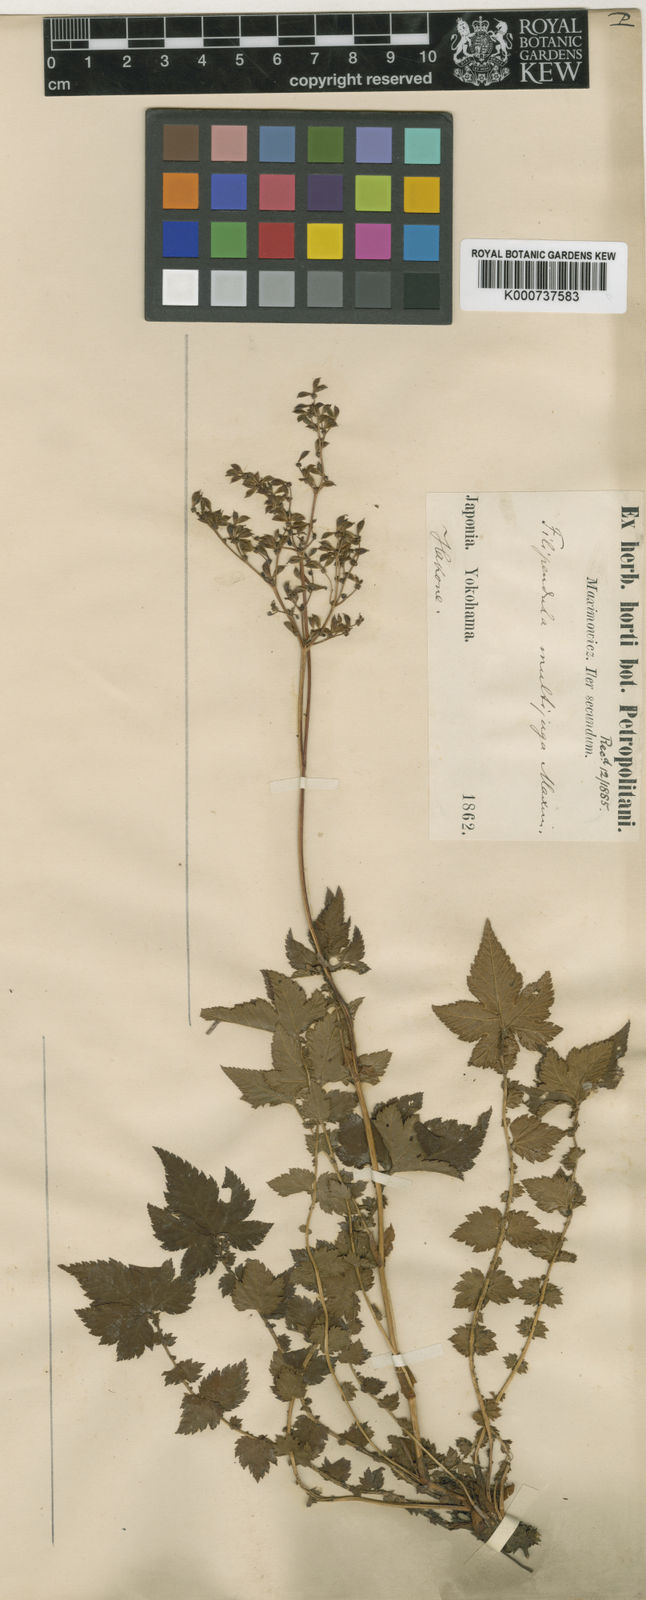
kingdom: Plantae
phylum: Tracheophyta
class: Magnoliopsida
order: Rosales
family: Rosaceae
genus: Filipendula
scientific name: Filipendula multijuga
